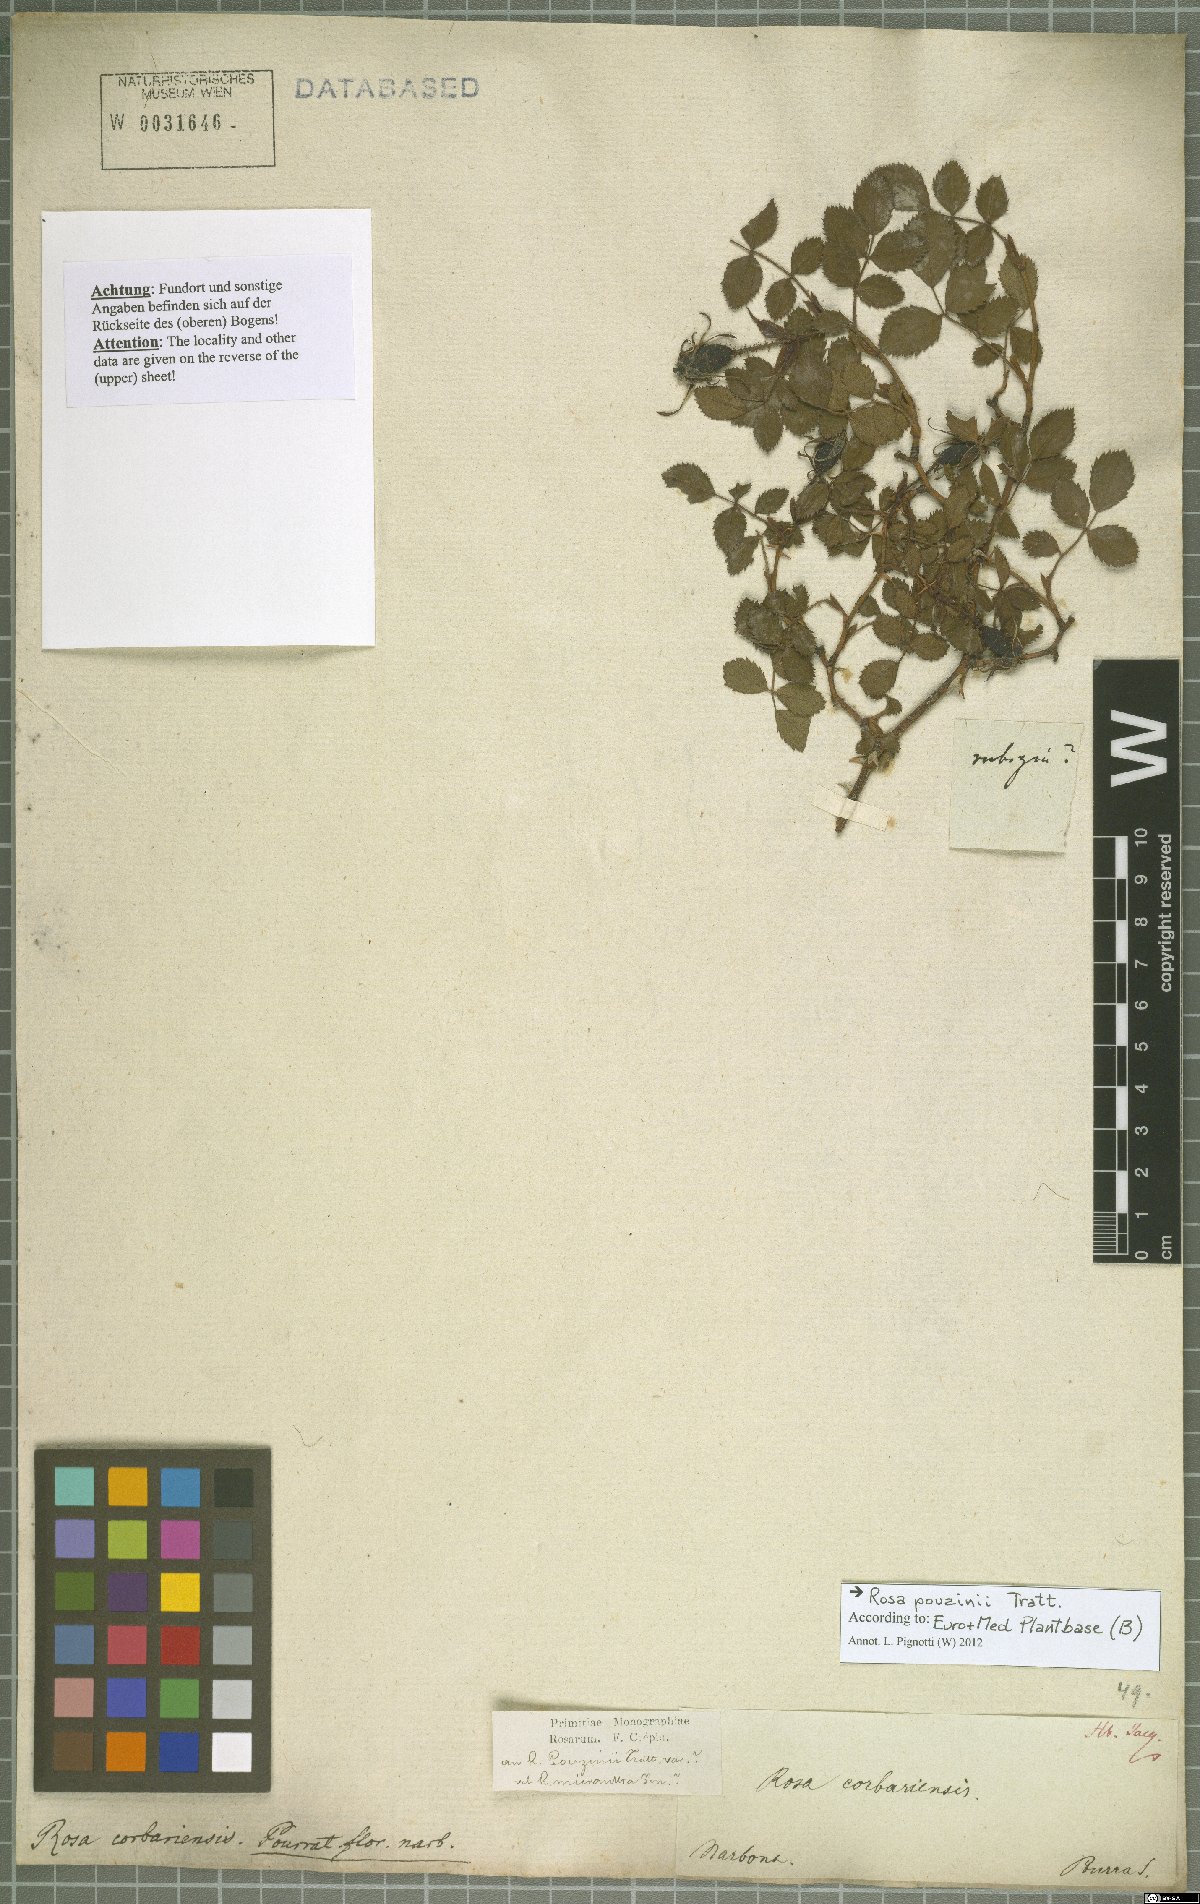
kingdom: Plantae
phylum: Tracheophyta
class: Magnoliopsida
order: Rosales
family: Rosaceae
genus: Rosa
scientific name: Rosa pouzinii
